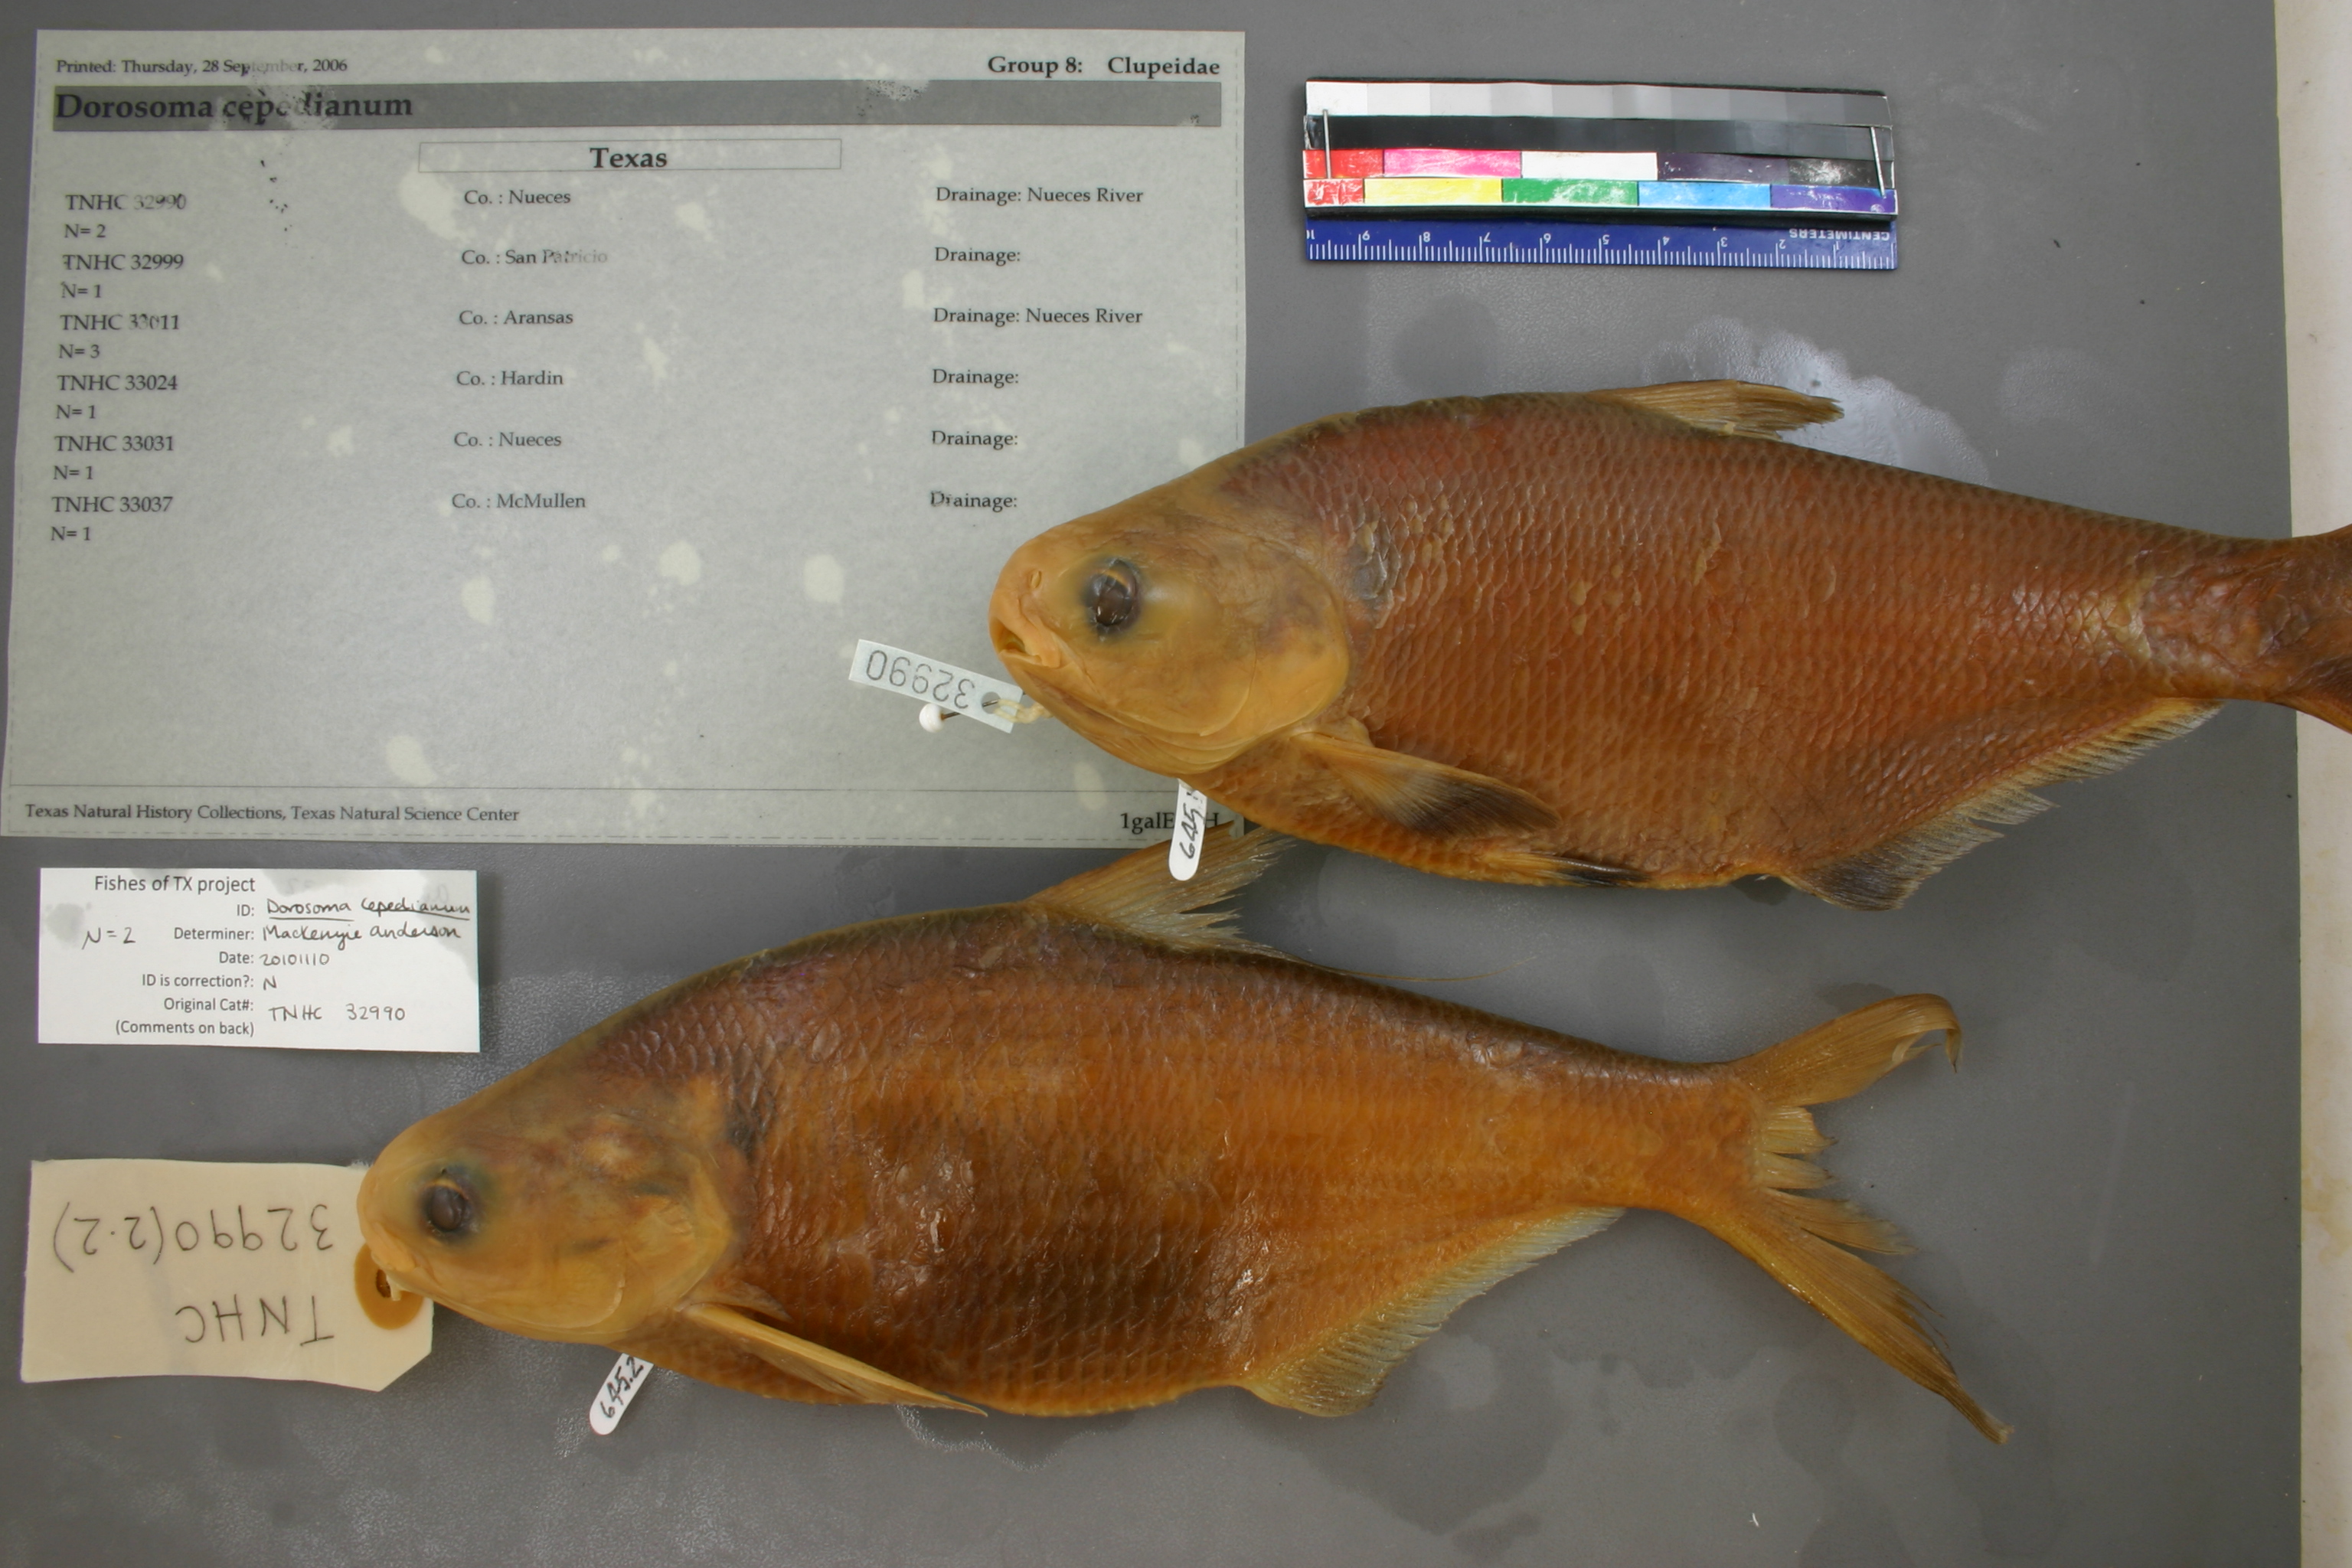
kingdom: Animalia
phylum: Chordata
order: Clupeiformes
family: Clupeidae
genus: Dorosoma
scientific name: Dorosoma cepedianum
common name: Gizzard shad
